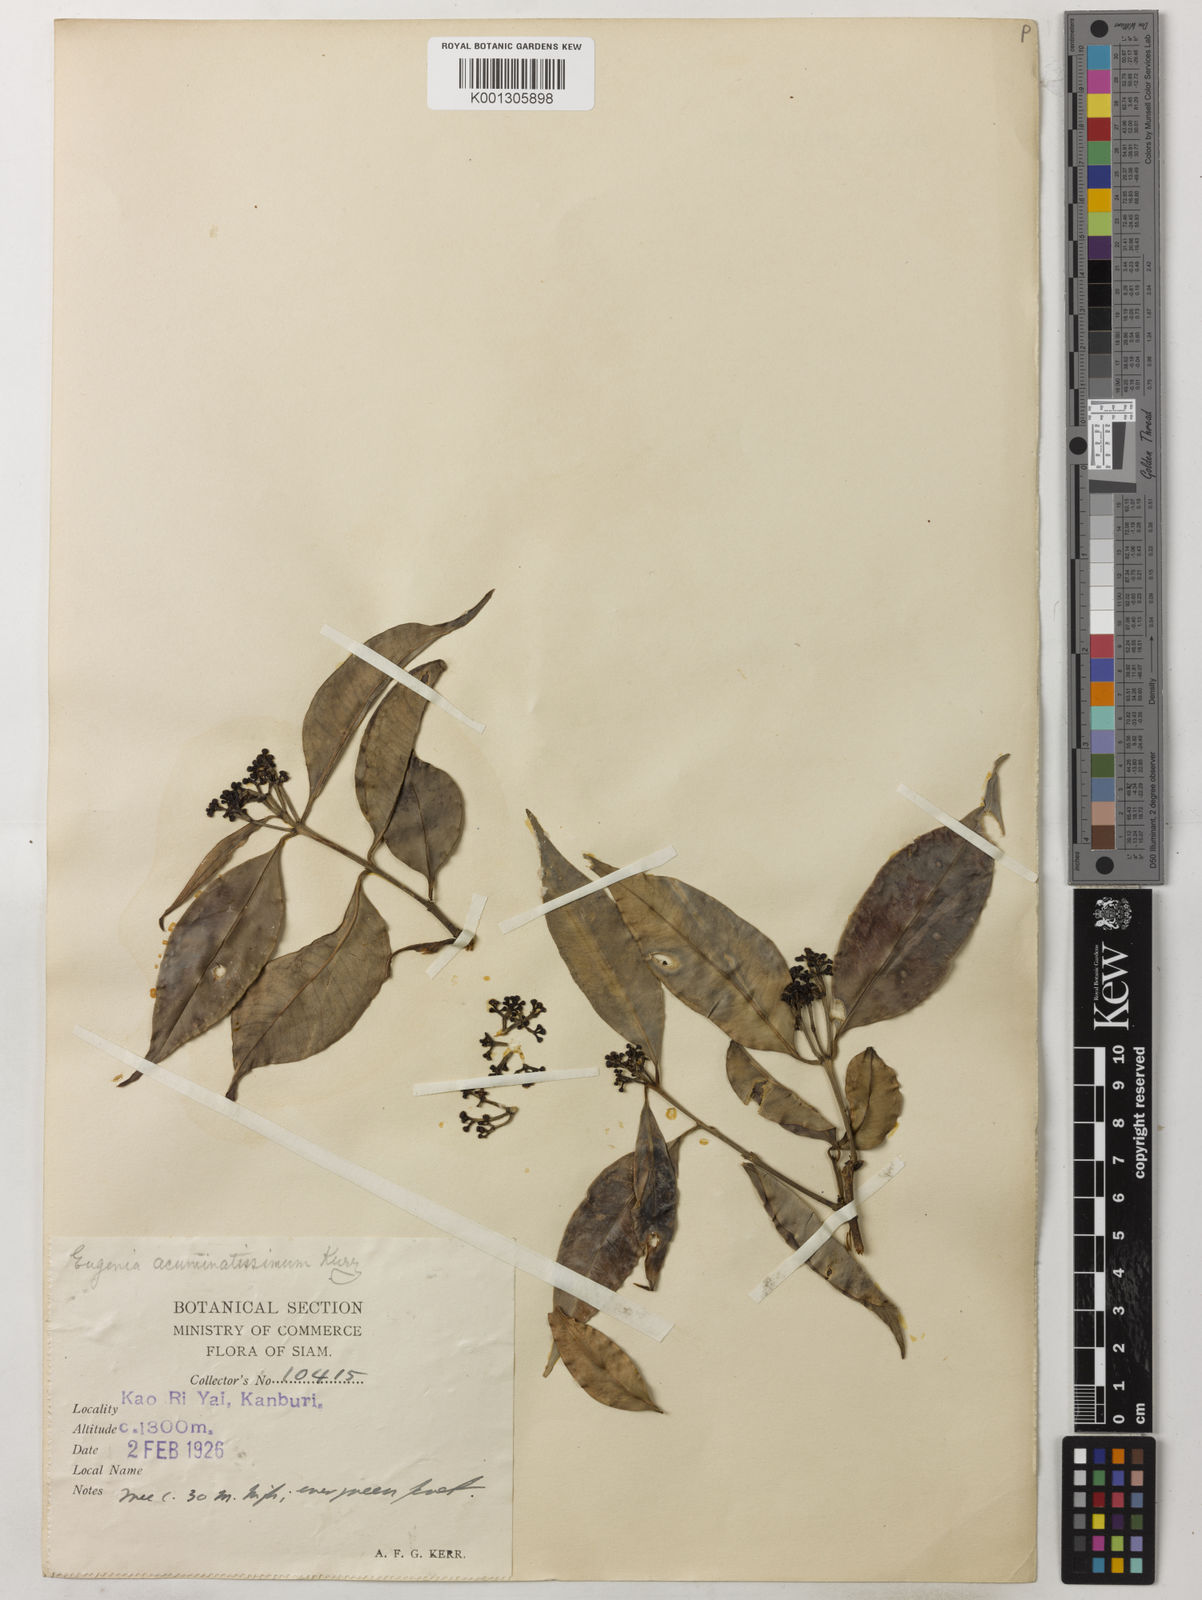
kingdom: Plantae
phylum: Tracheophyta
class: Magnoliopsida
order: Myrtales
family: Myrtaceae
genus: Syzygium
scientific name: Syzygium acuminatissimum
